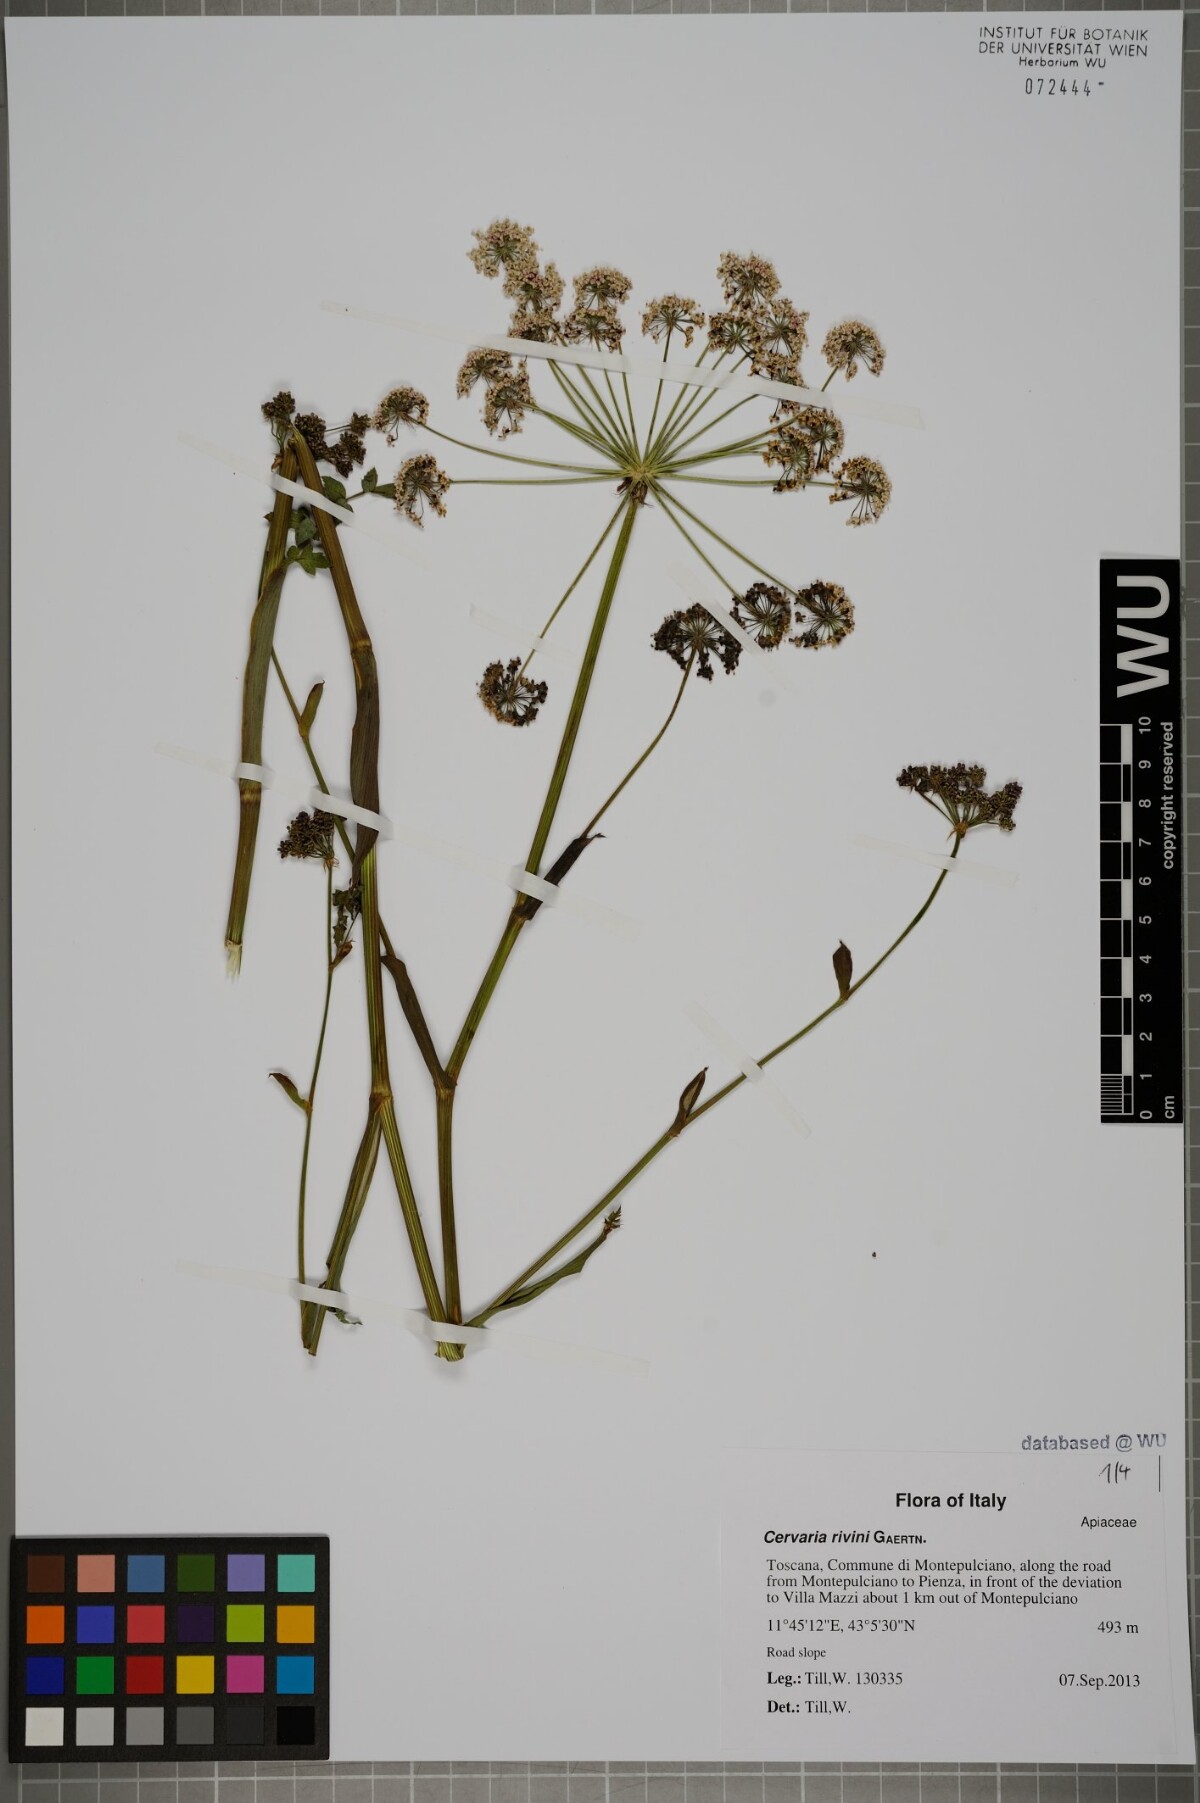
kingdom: Plantae
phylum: Tracheophyta
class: Magnoliopsida
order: Apiales
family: Apiaceae
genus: Cervaria
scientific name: Cervaria rivini
